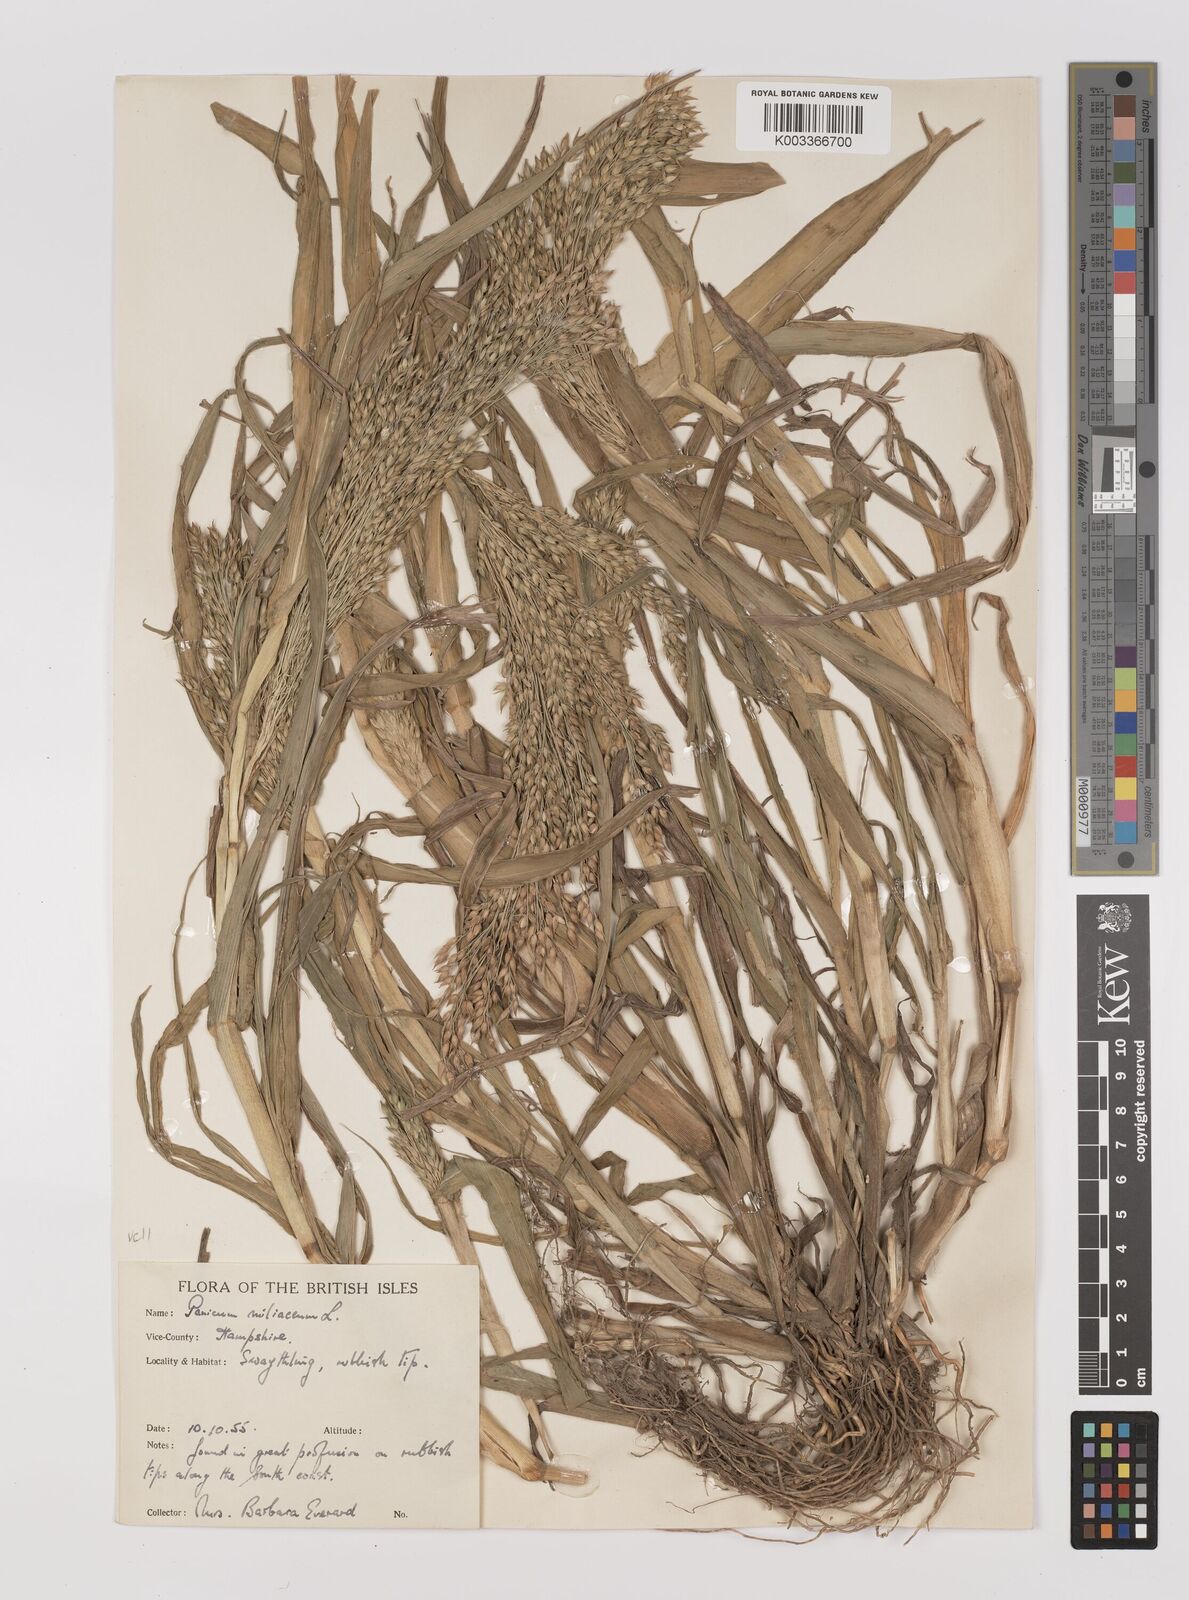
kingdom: Plantae
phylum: Tracheophyta
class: Liliopsida
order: Poales
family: Poaceae
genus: Panicum
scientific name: Panicum miliaceum
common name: Common millet
